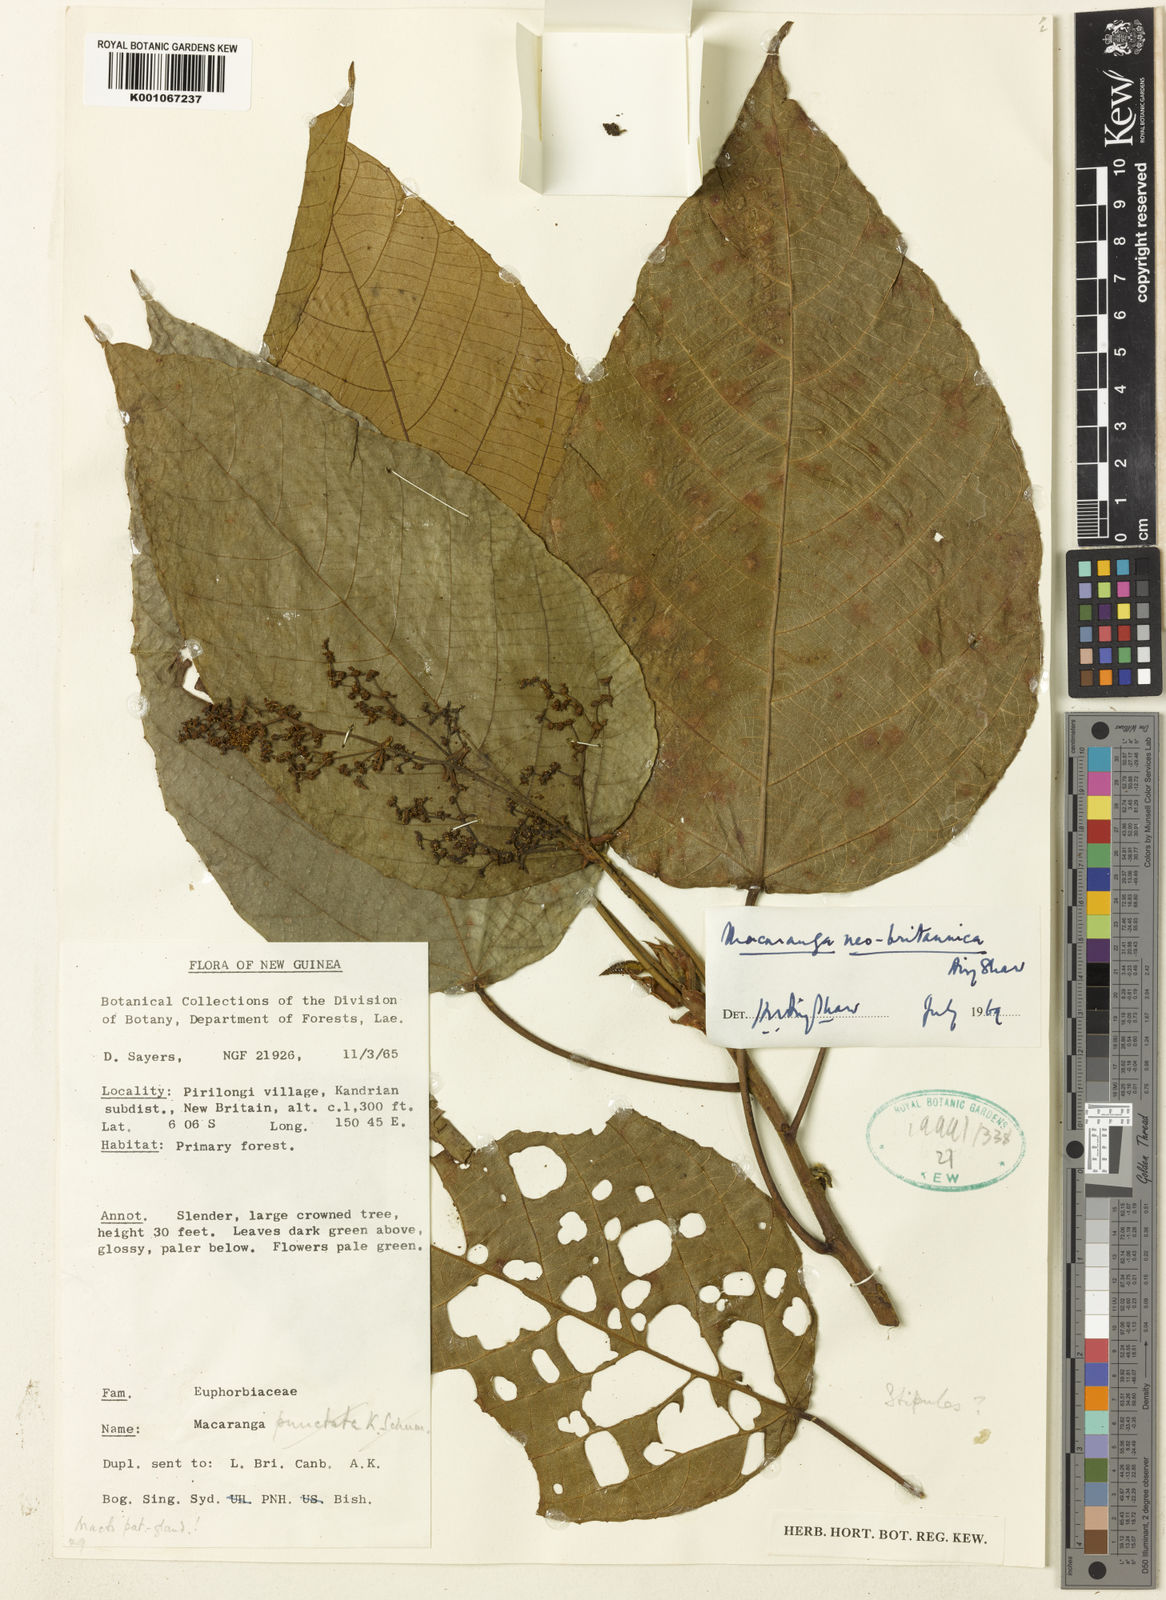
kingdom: Plantae
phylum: Tracheophyta
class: Magnoliopsida
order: Malpighiales
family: Euphorbiaceae
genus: Macaranga
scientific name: Macaranga neobritannica
